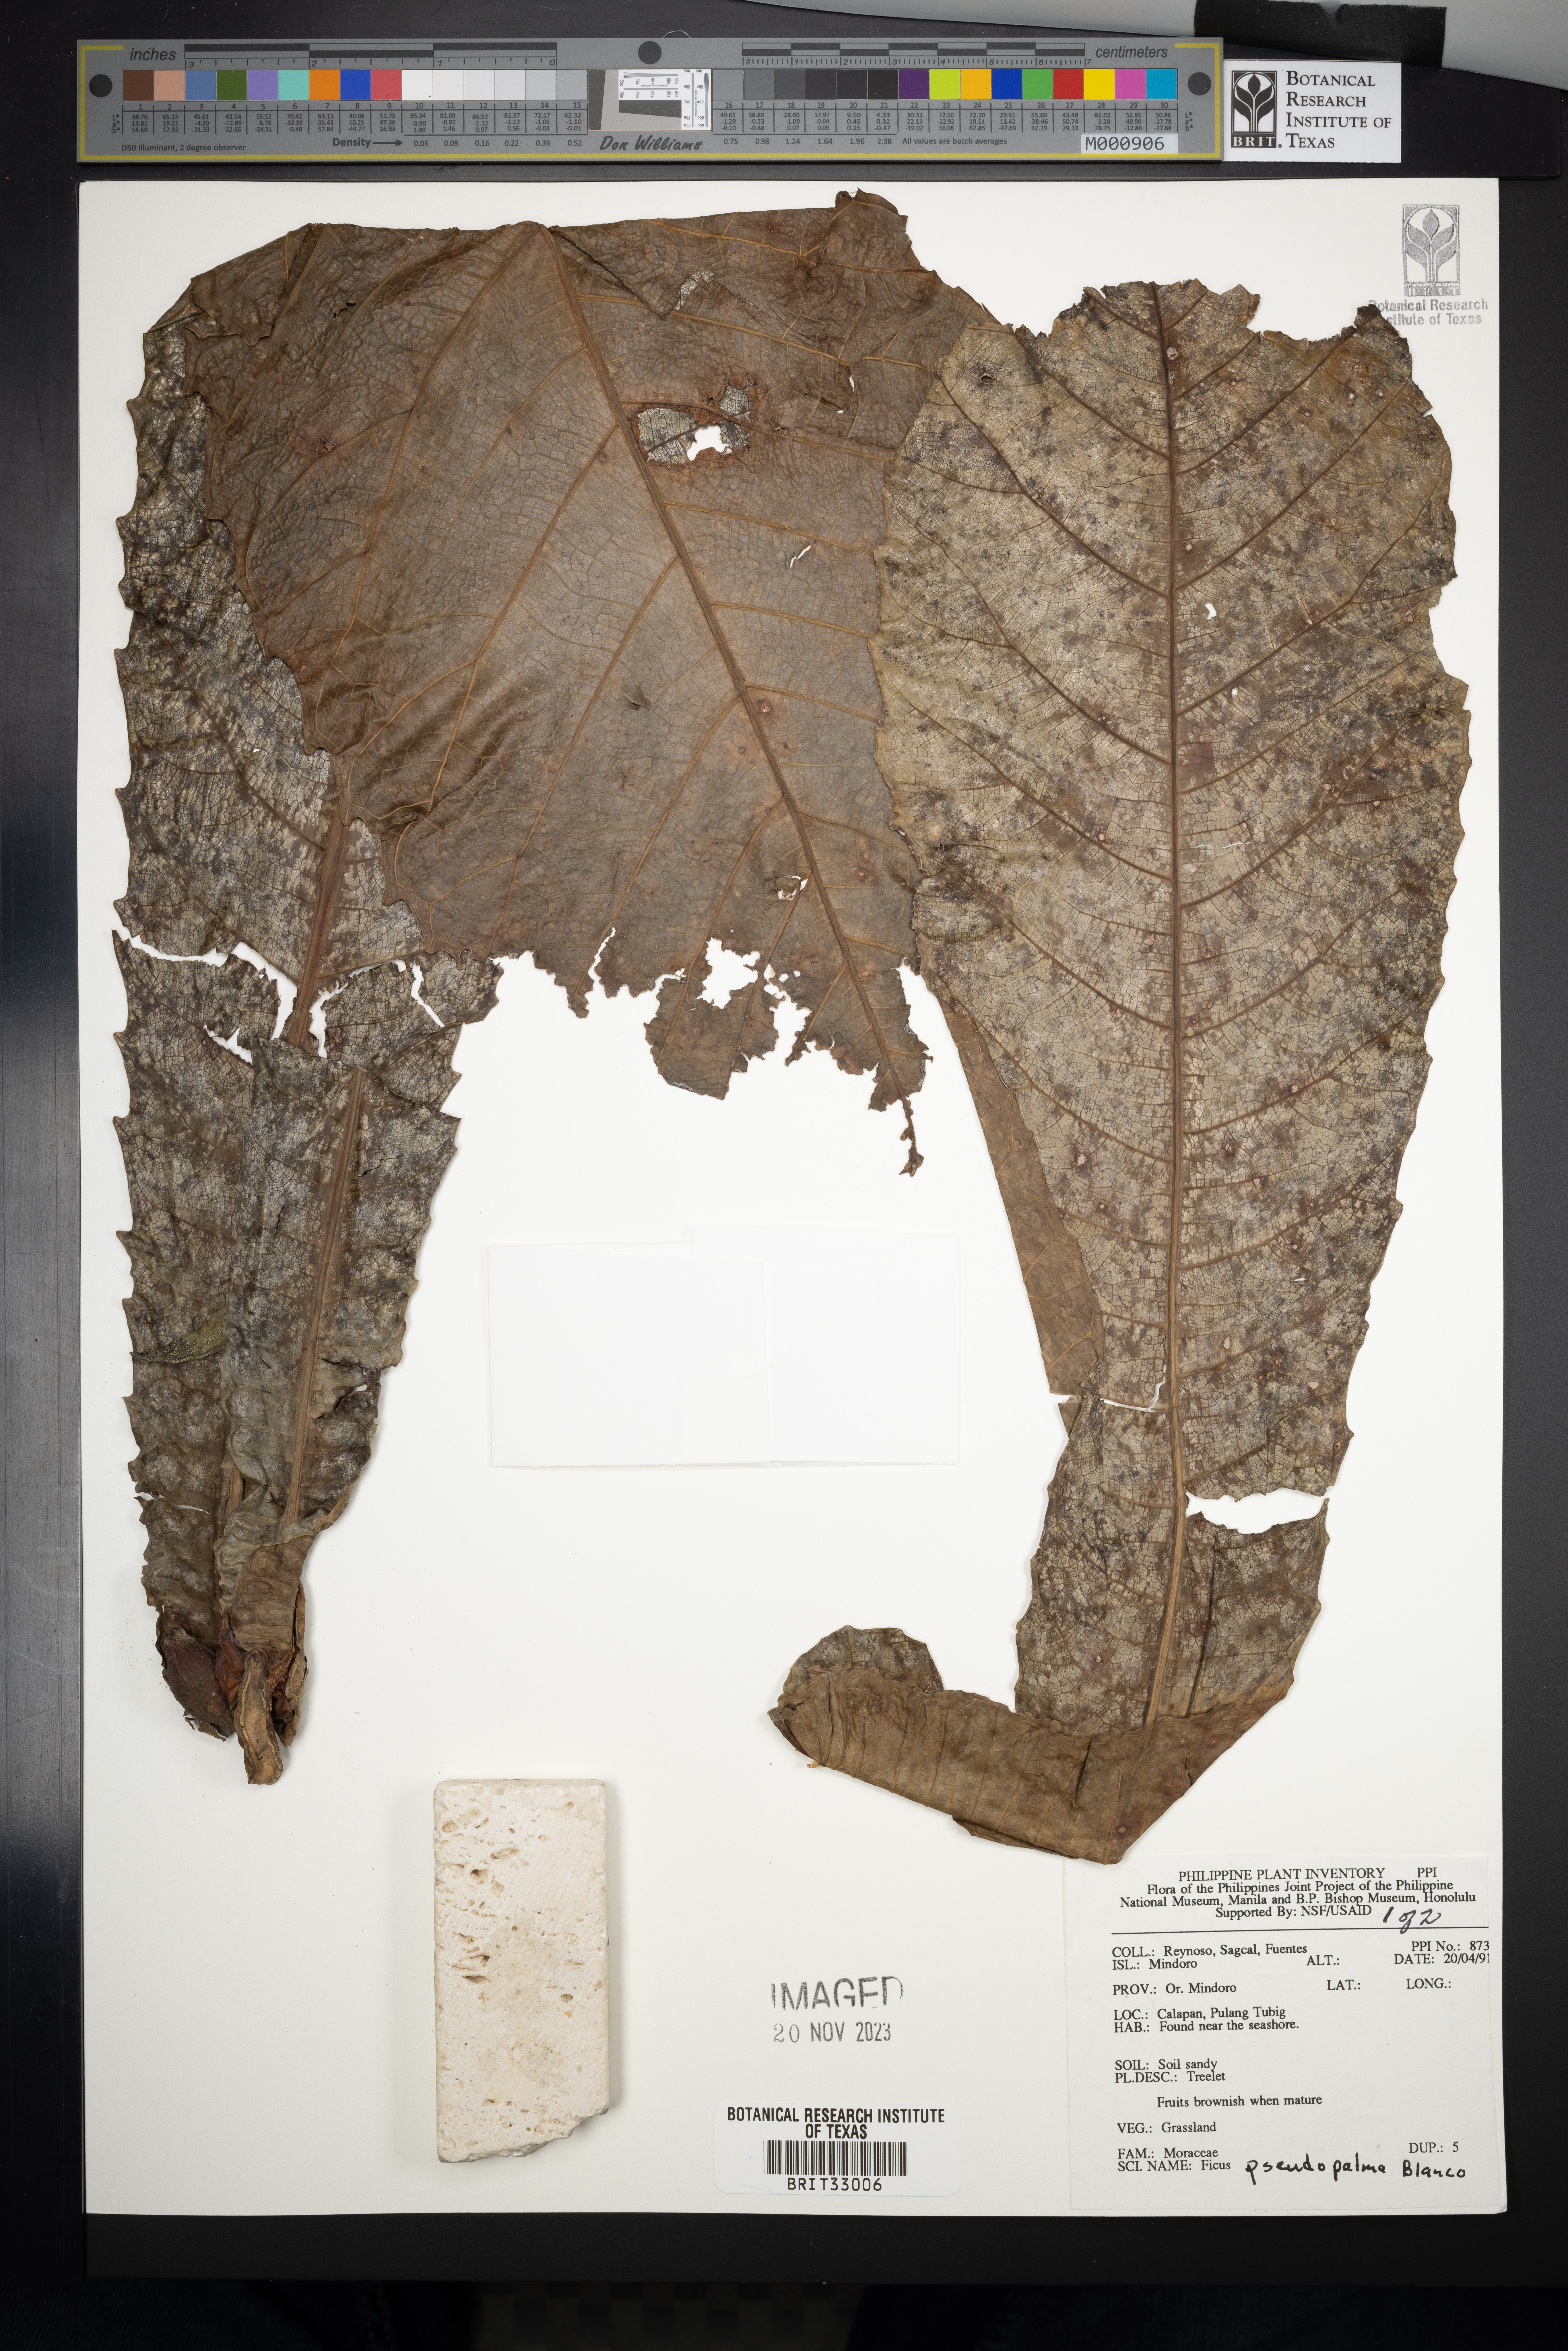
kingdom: Plantae
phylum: Tracheophyta
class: Magnoliopsida
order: Rosales
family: Moraceae
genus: Ficus
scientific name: Ficus pseudopalma
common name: Palm-like fig
